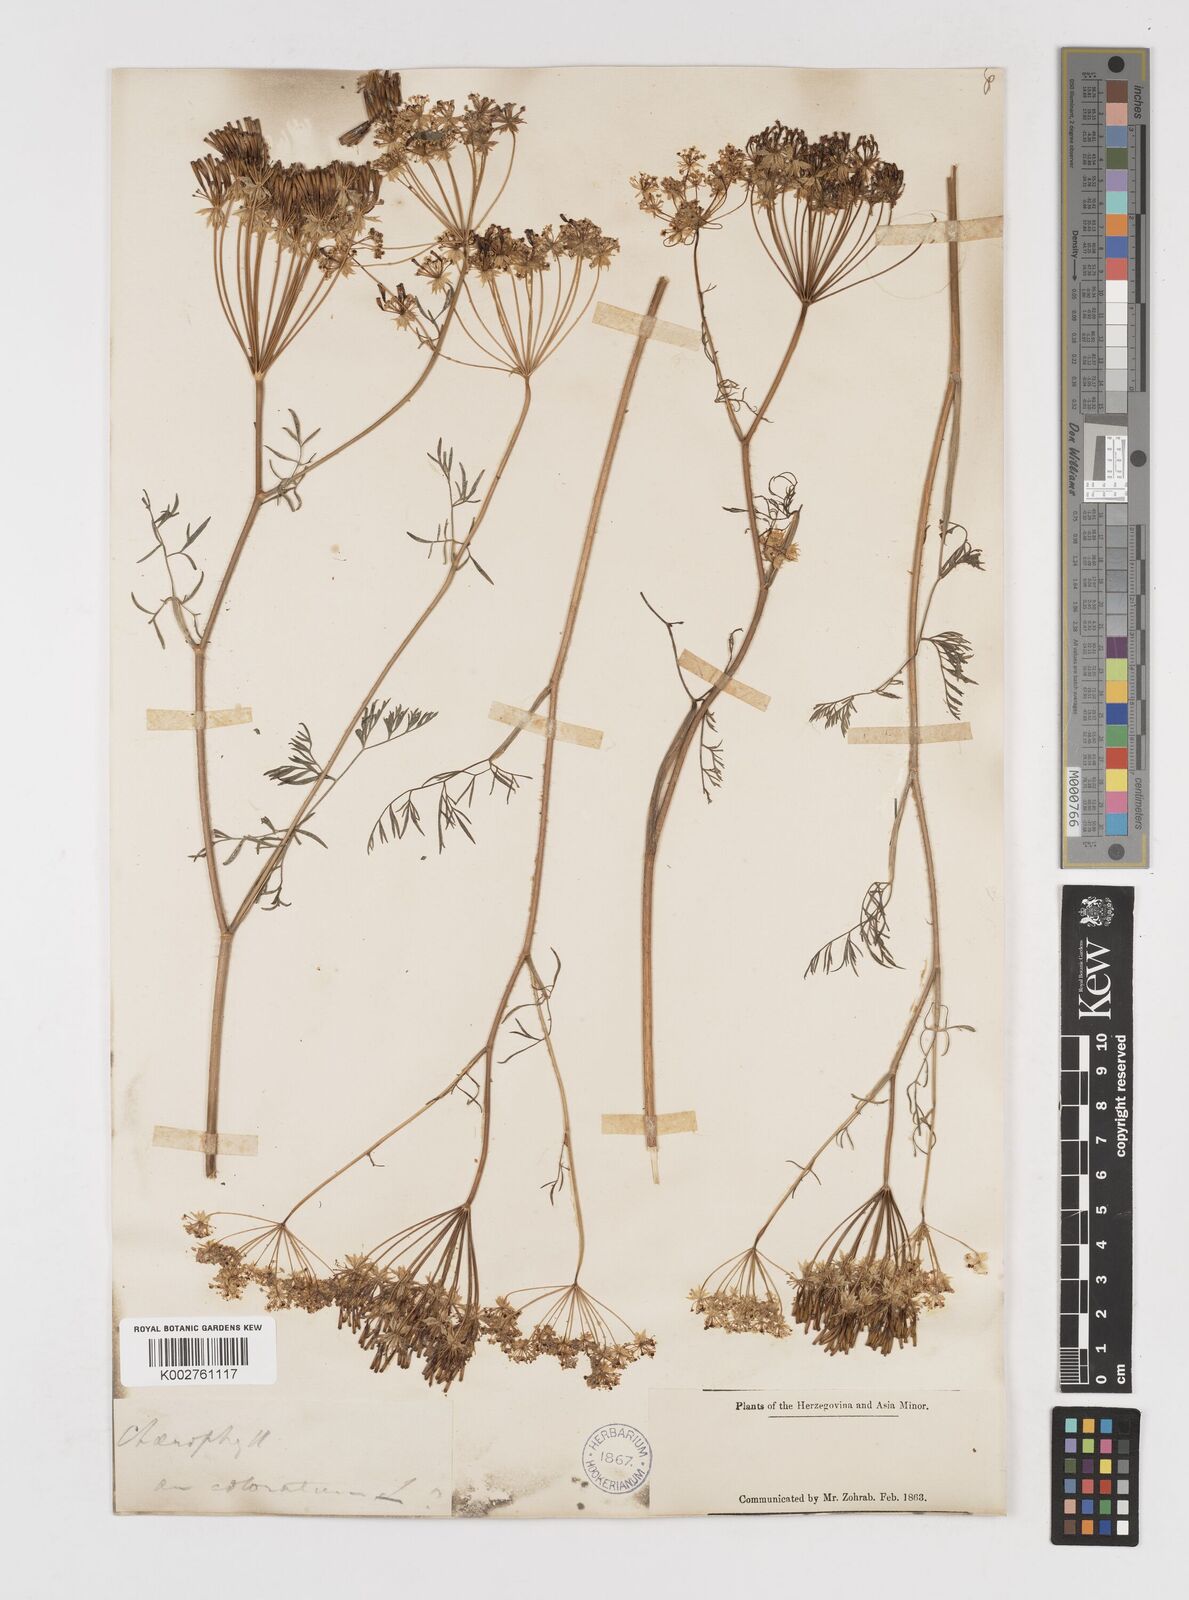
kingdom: Plantae
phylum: Tracheophyta
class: Magnoliopsida
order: Apiales
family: Apiaceae
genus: Chaerophyllum
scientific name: Chaerophyllum coloratum
